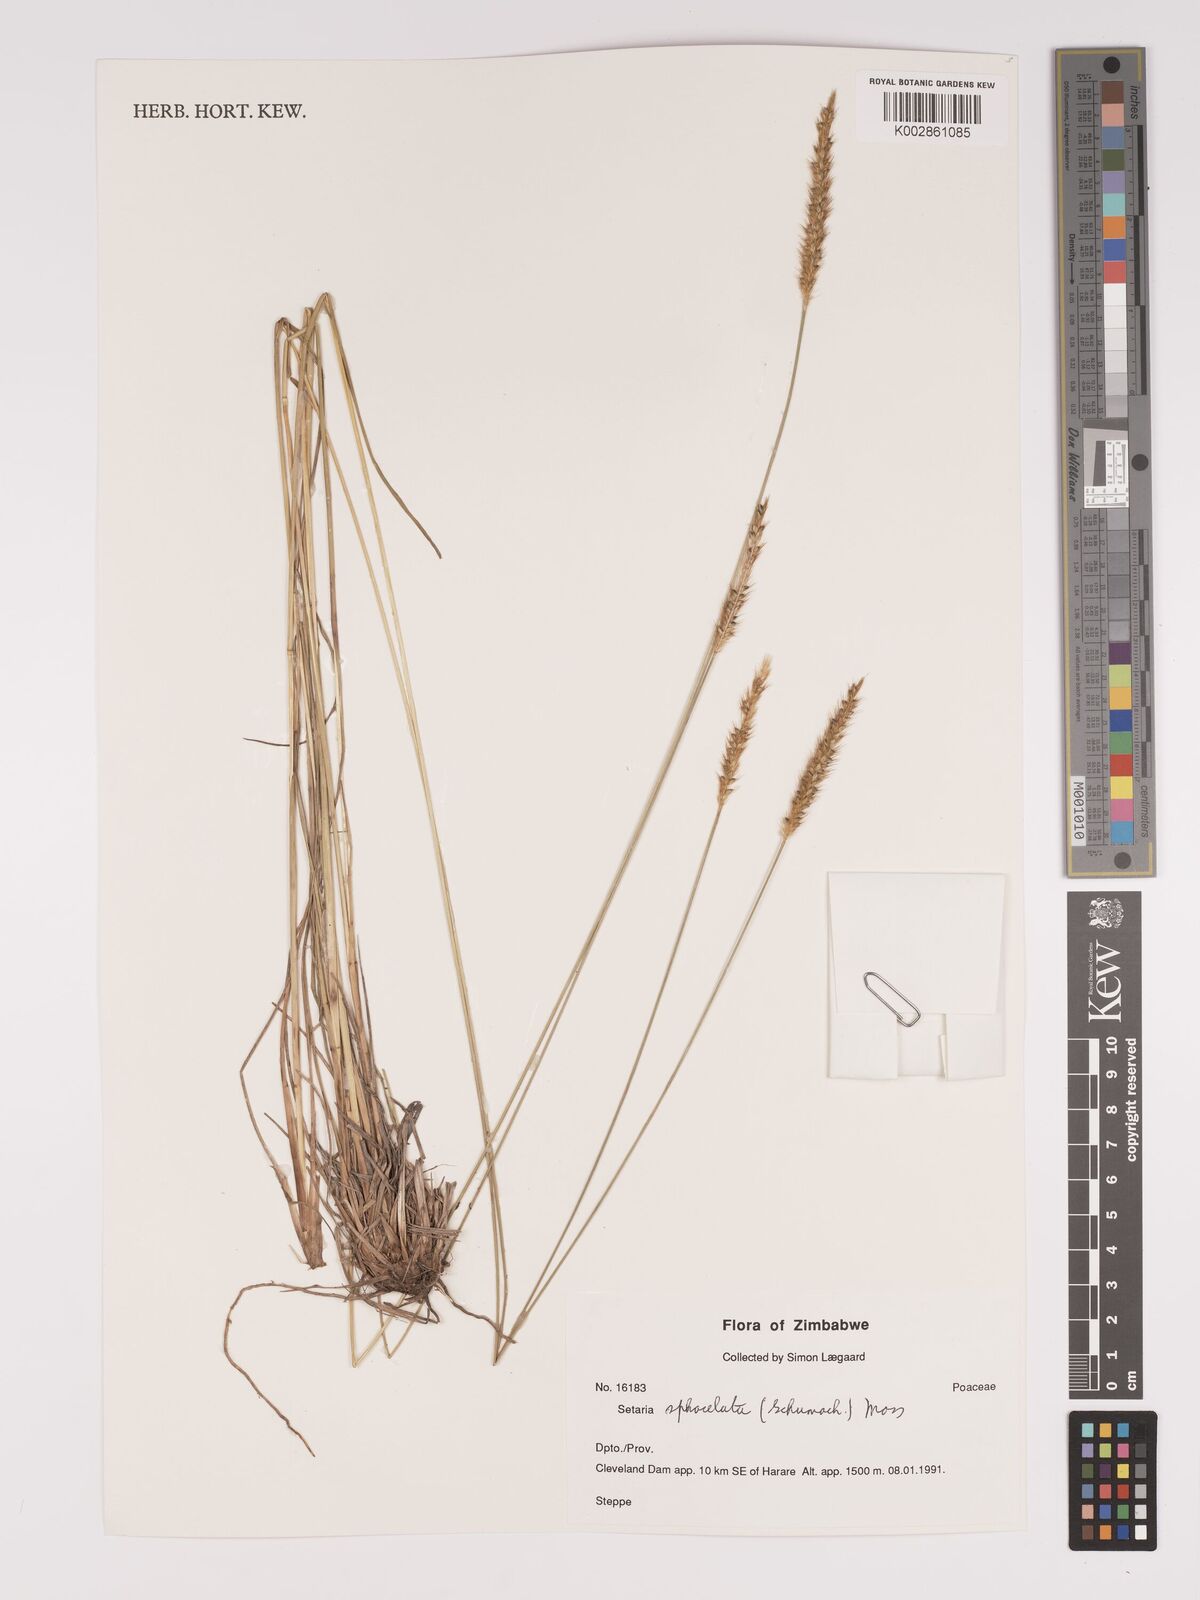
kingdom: Plantae
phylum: Tracheophyta
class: Liliopsida
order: Poales
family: Poaceae
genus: Setaria
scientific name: Setaria sphacelata
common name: African bristlegrass
